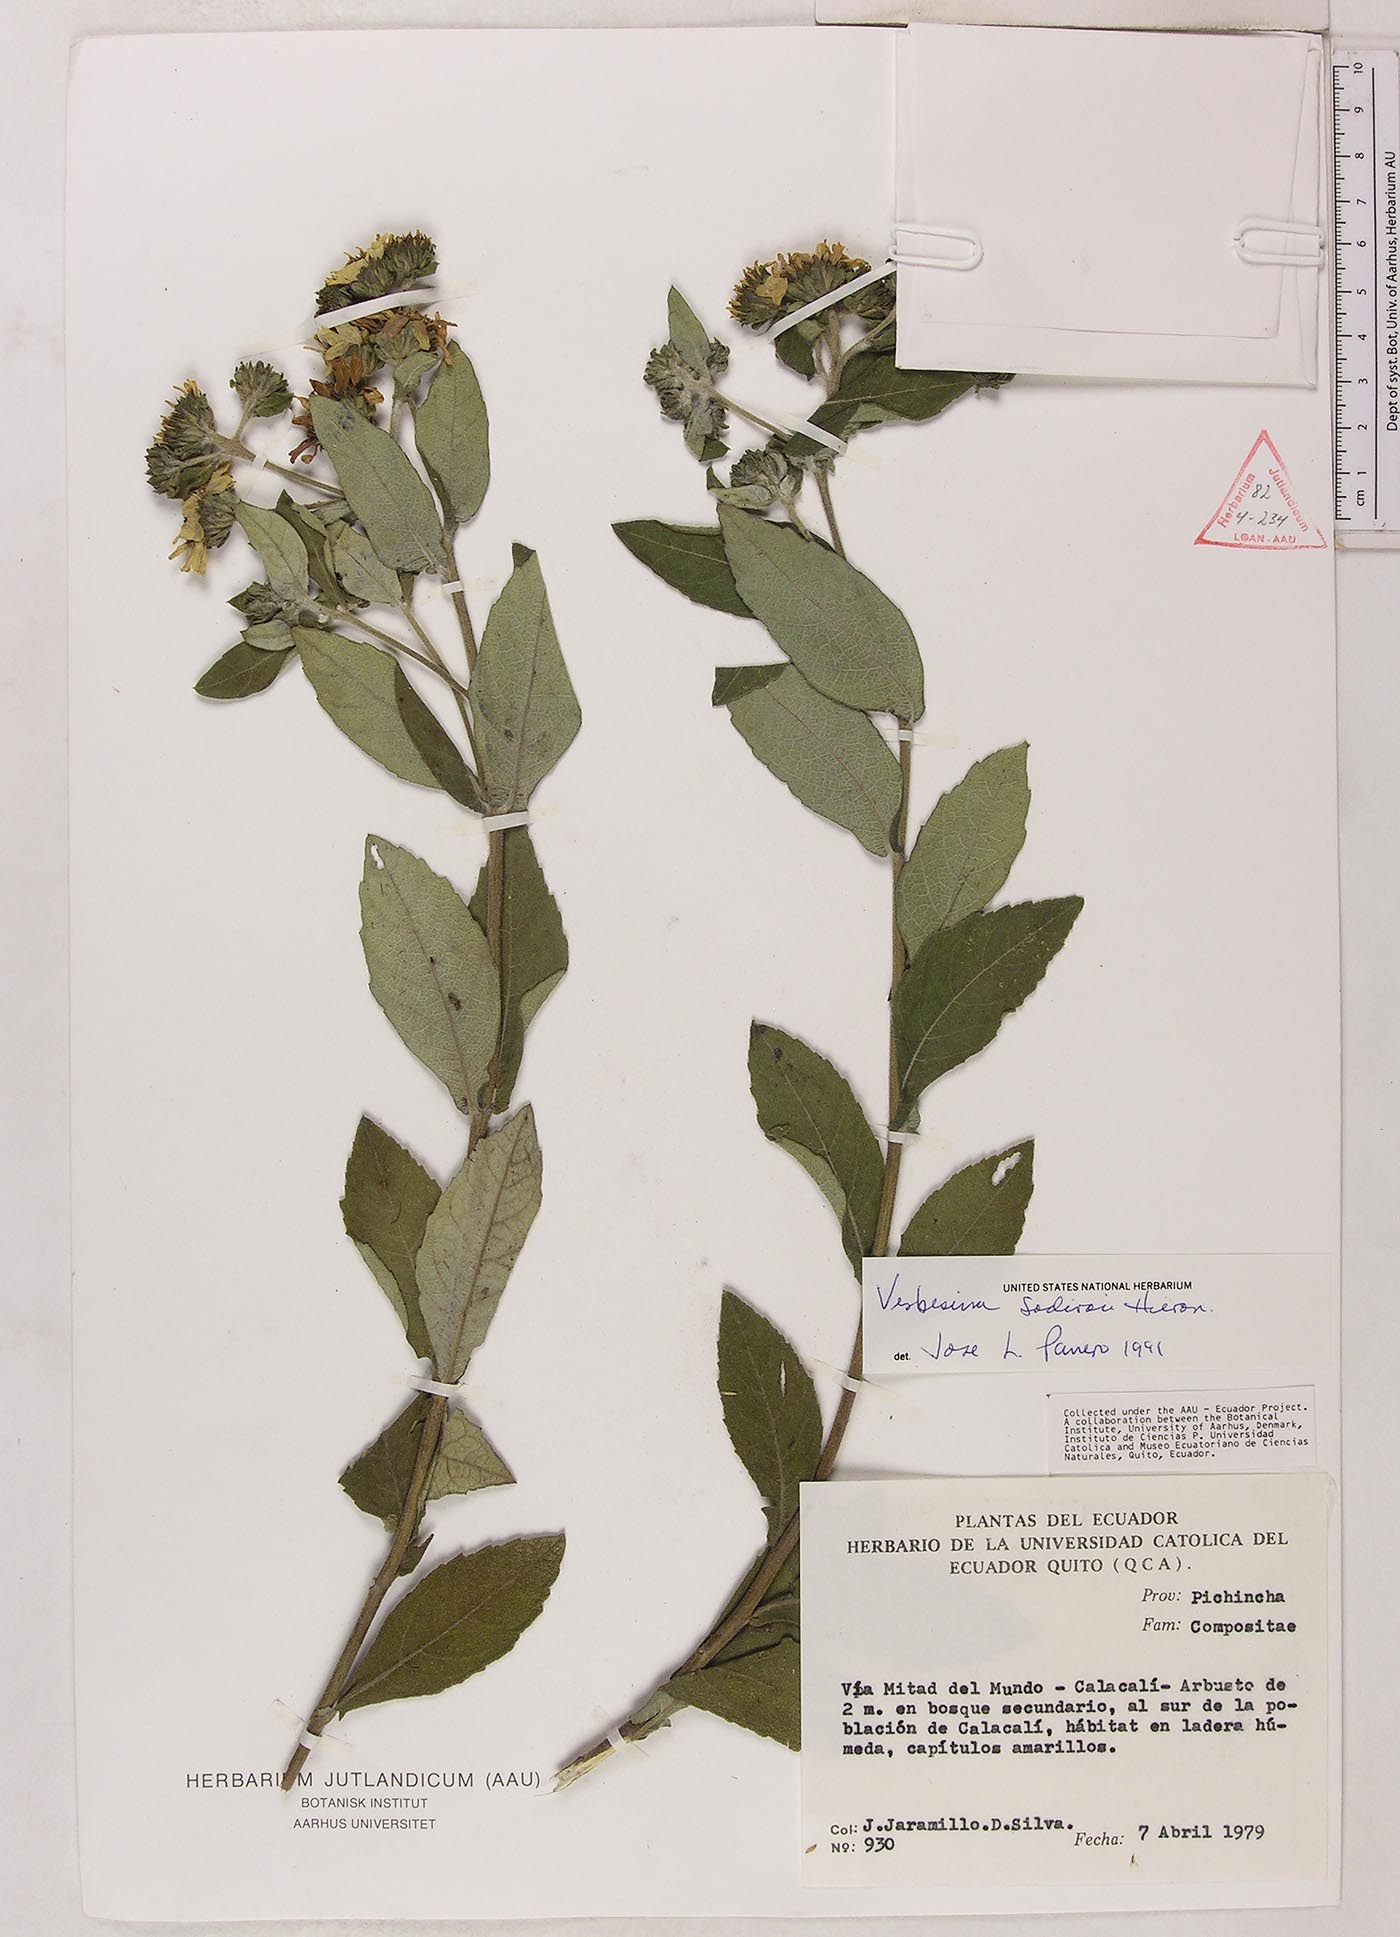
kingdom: Plantae
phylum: Tracheophyta
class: Magnoliopsida
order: Asterales
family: Asteraceae
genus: Verbesina
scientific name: Verbesina sodiroi
